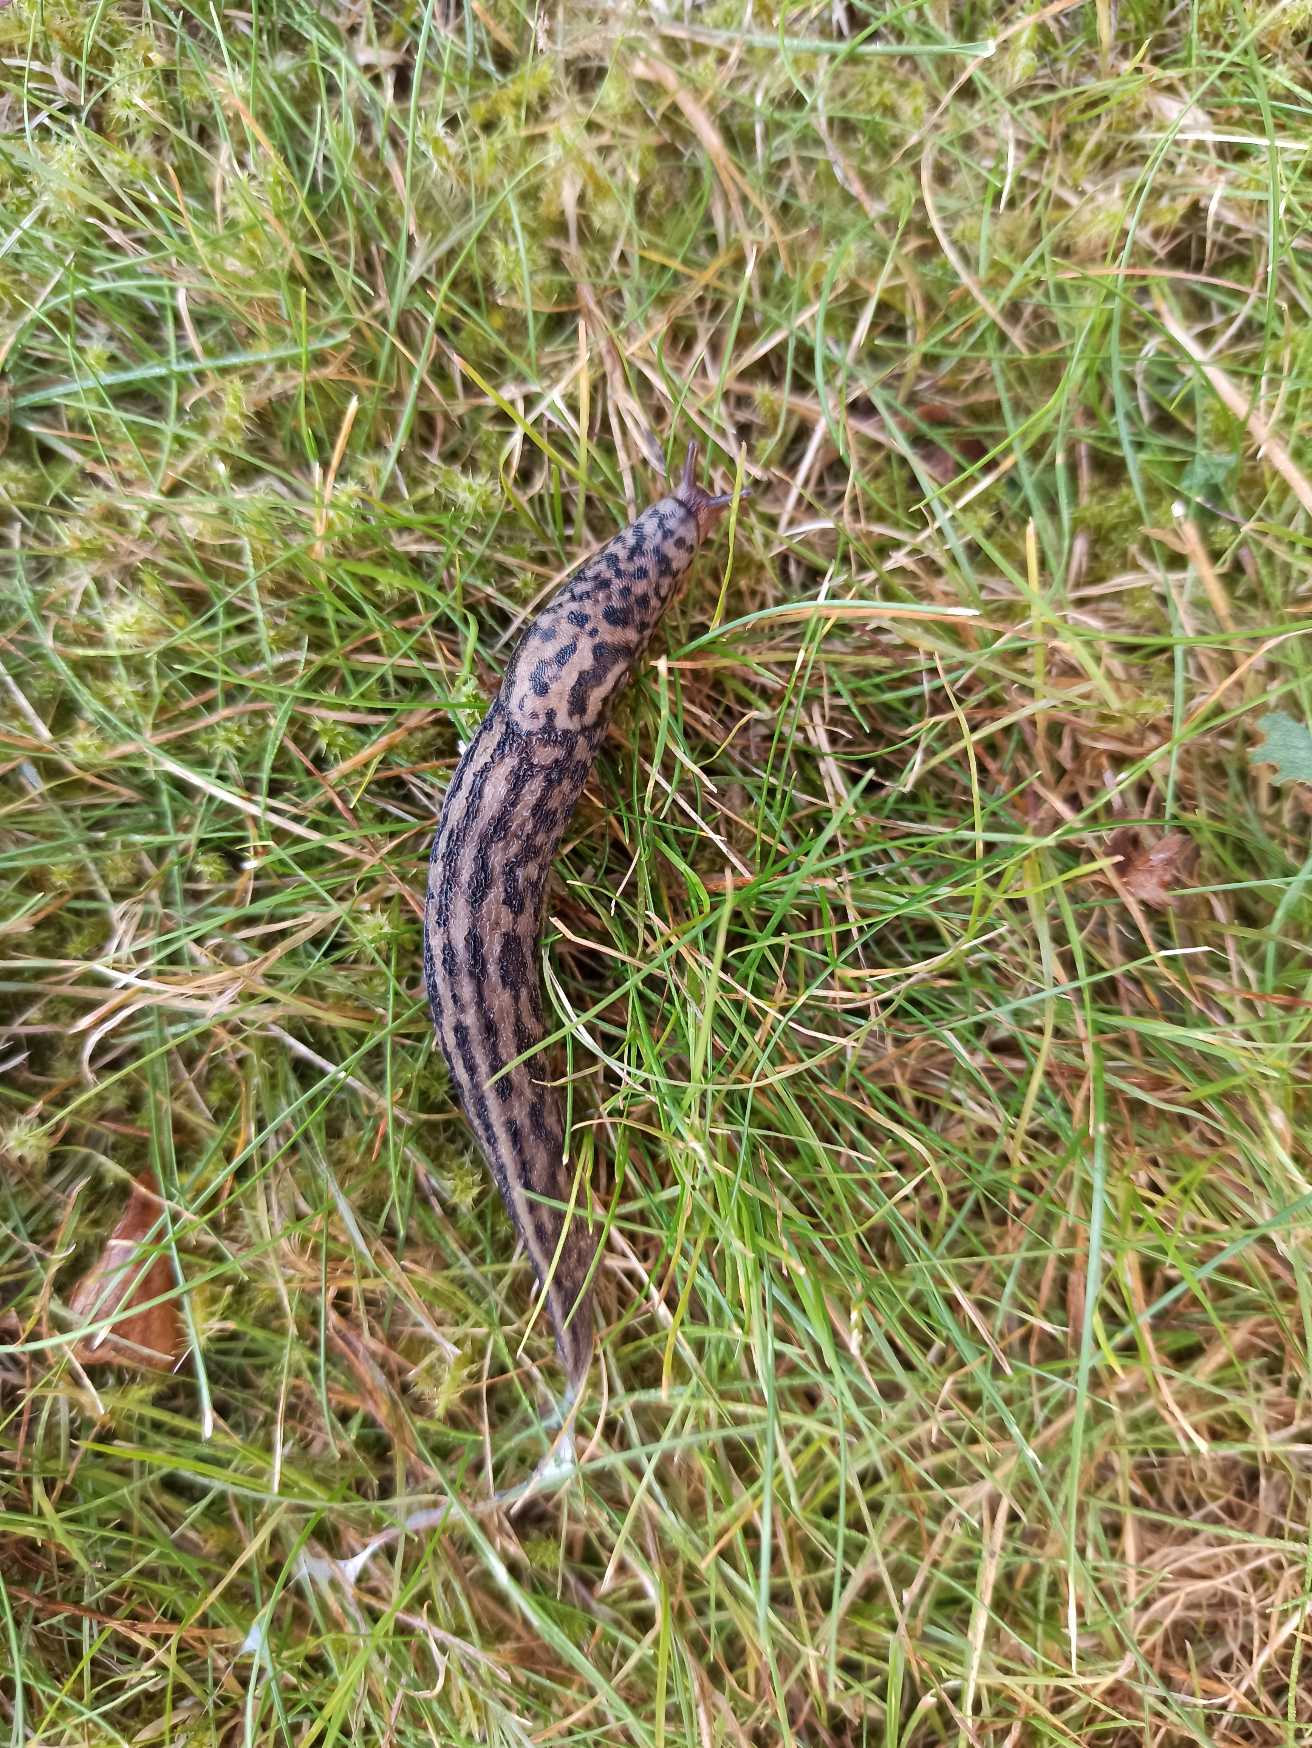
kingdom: Animalia
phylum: Mollusca
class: Gastropoda
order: Stylommatophora
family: Limacidae
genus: Limax
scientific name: Limax maximus
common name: Pantersnegl
